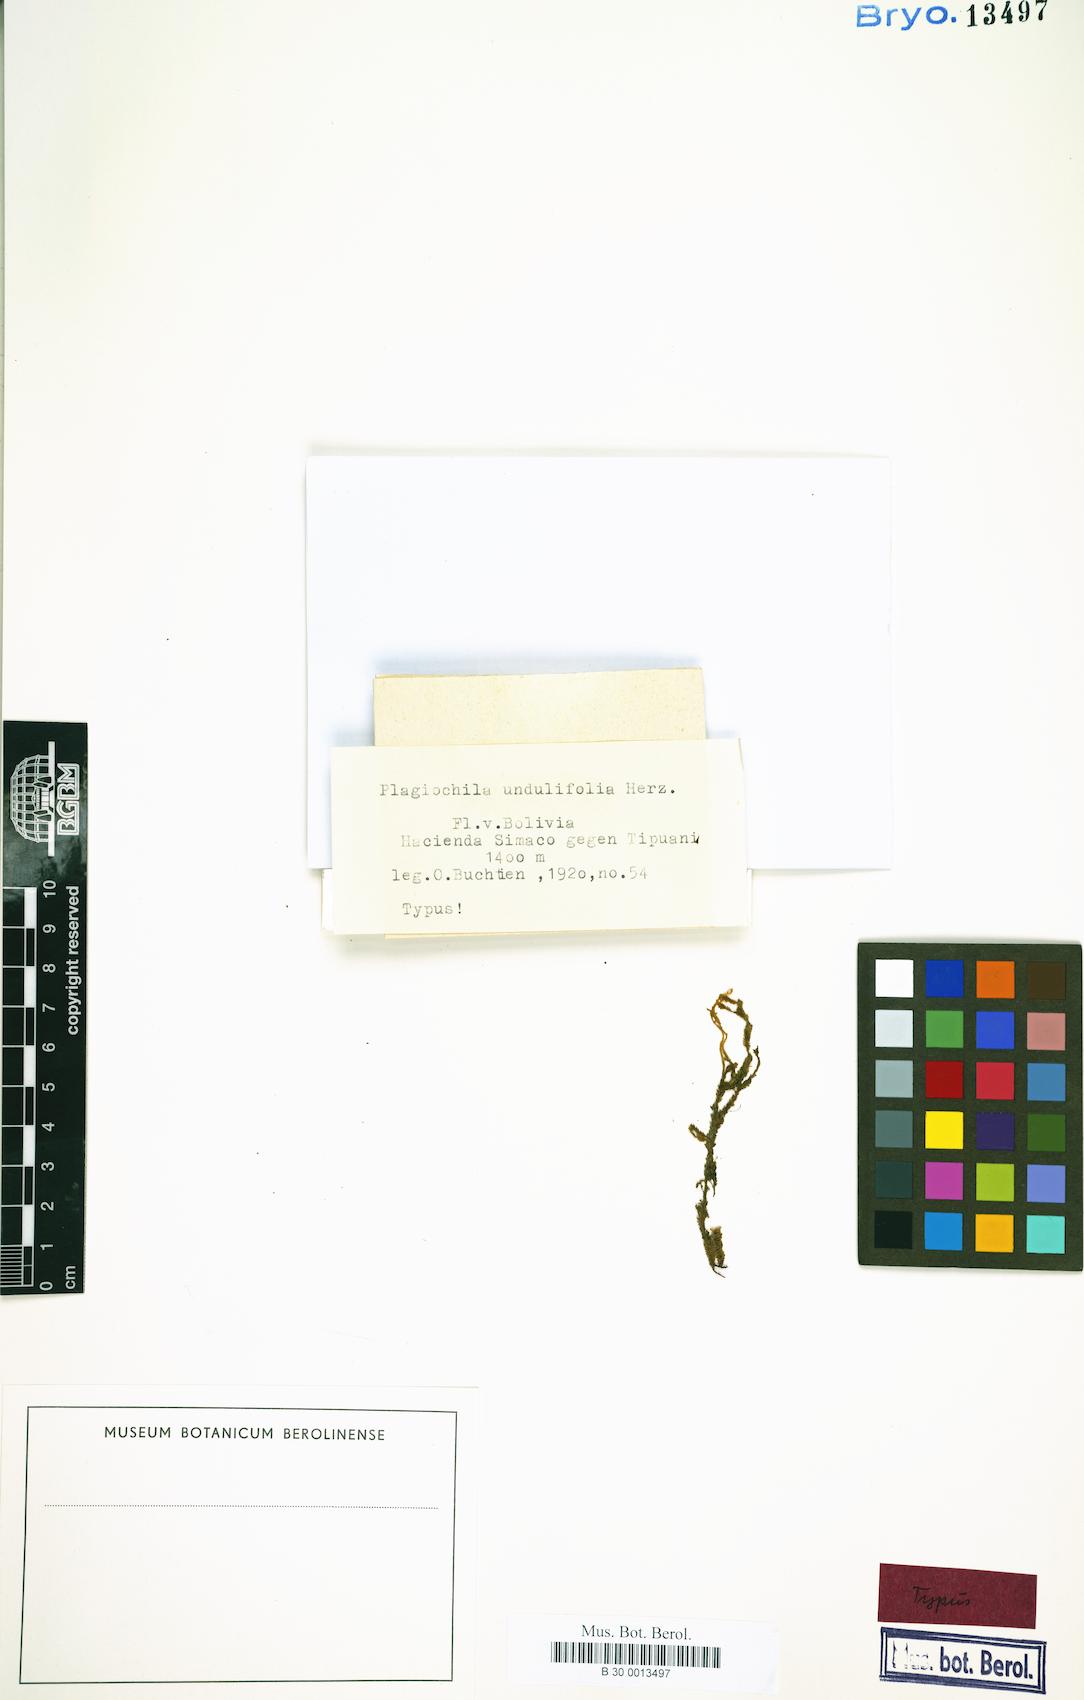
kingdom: Plantae
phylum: Marchantiophyta
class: Jungermanniopsida
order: Jungermanniales
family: Plagiochilaceae
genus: Plagiochila
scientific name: Plagiochila raddiana
